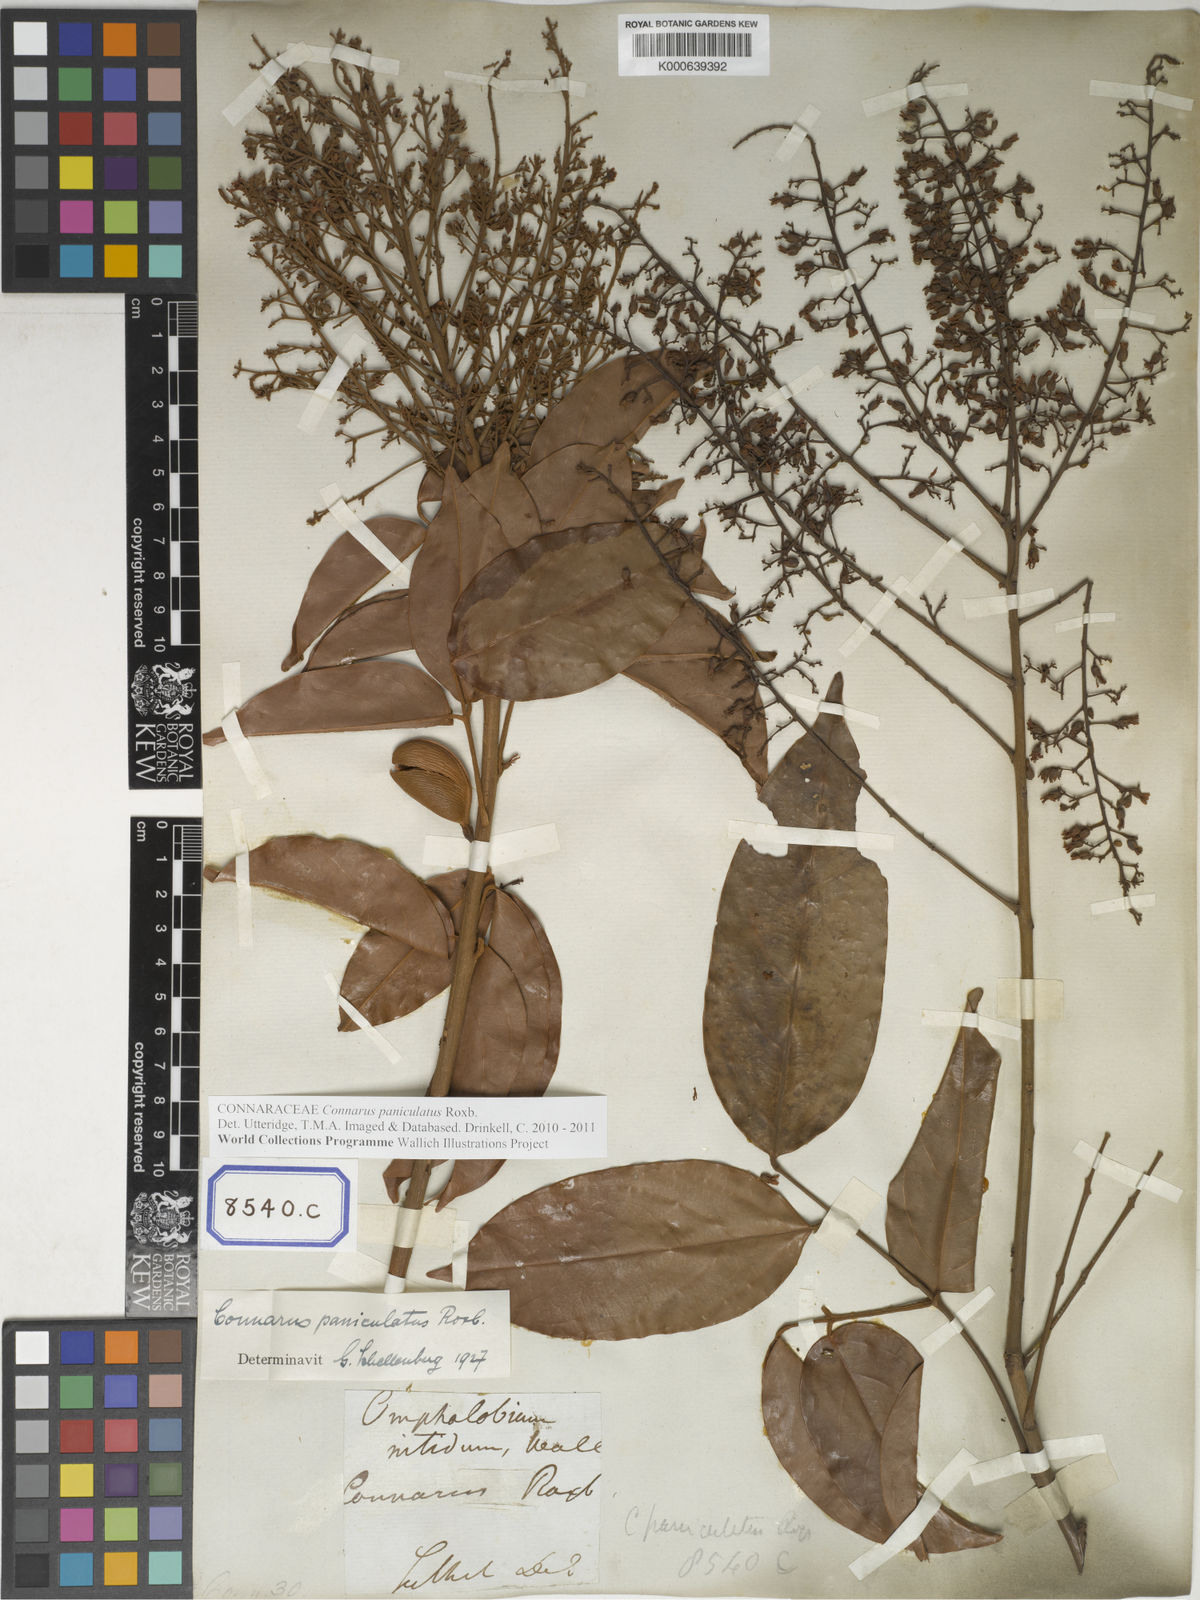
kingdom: Plantae
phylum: Tracheophyta
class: Magnoliopsida
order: Oxalidales
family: Connaraceae
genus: Connarus
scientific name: Connarus paniculatus
